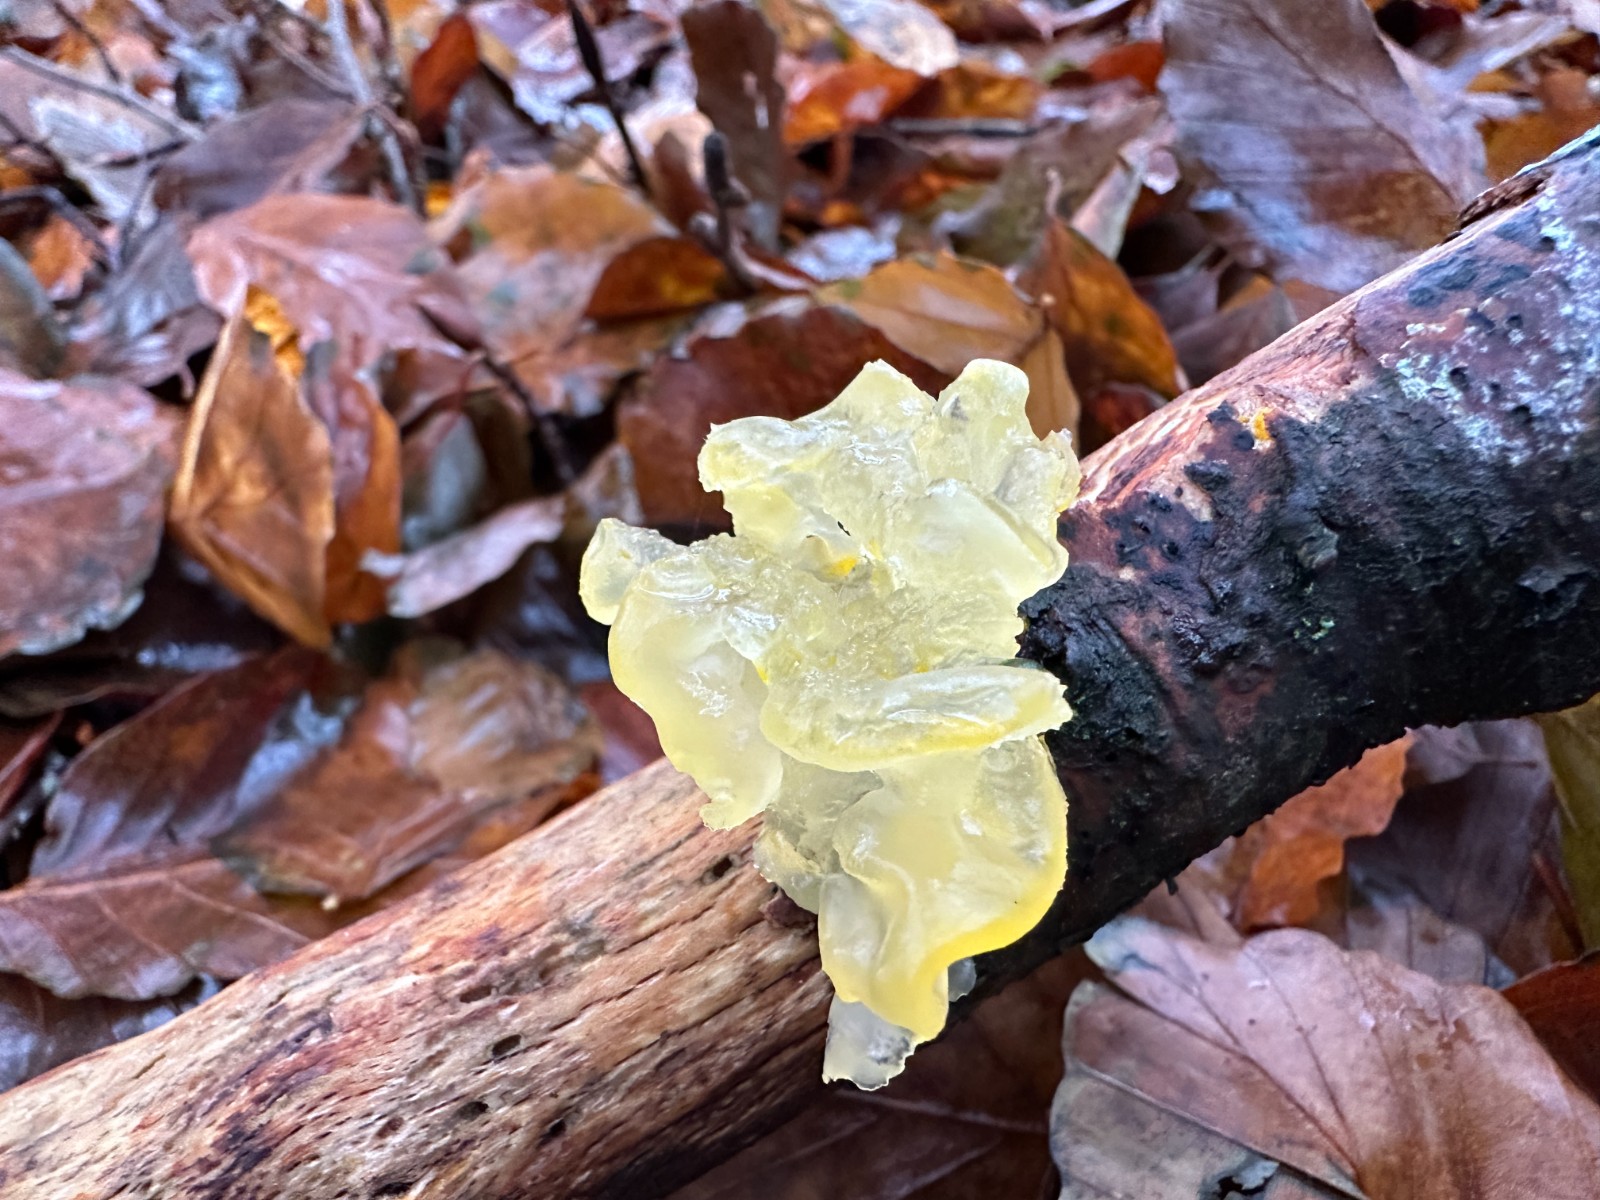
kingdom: Fungi
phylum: Basidiomycota
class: Tremellomycetes
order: Tremellales
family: Tremellaceae
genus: Tremella
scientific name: Tremella mesenterica
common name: gul bævresvamp
